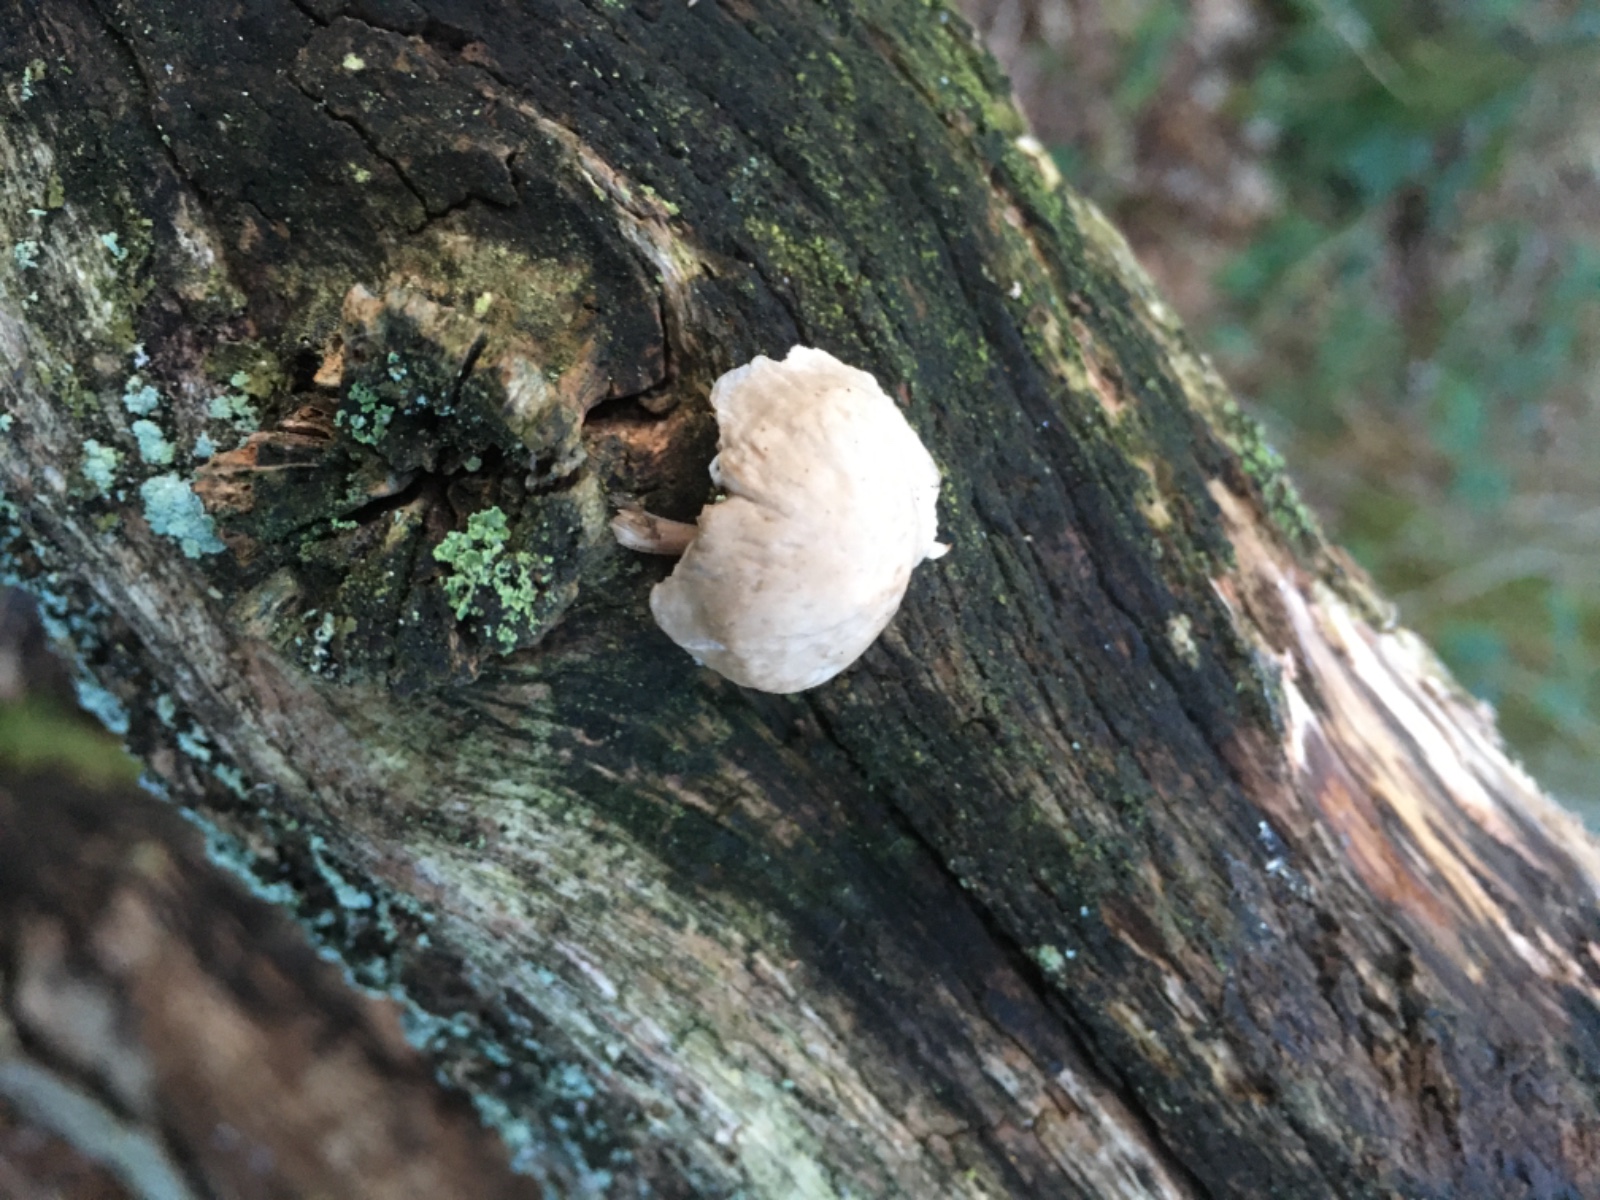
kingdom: Fungi
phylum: Basidiomycota
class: Agaricomycetes
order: Agaricales
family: Mycenaceae
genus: Mycena
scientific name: Mycena galericulata
